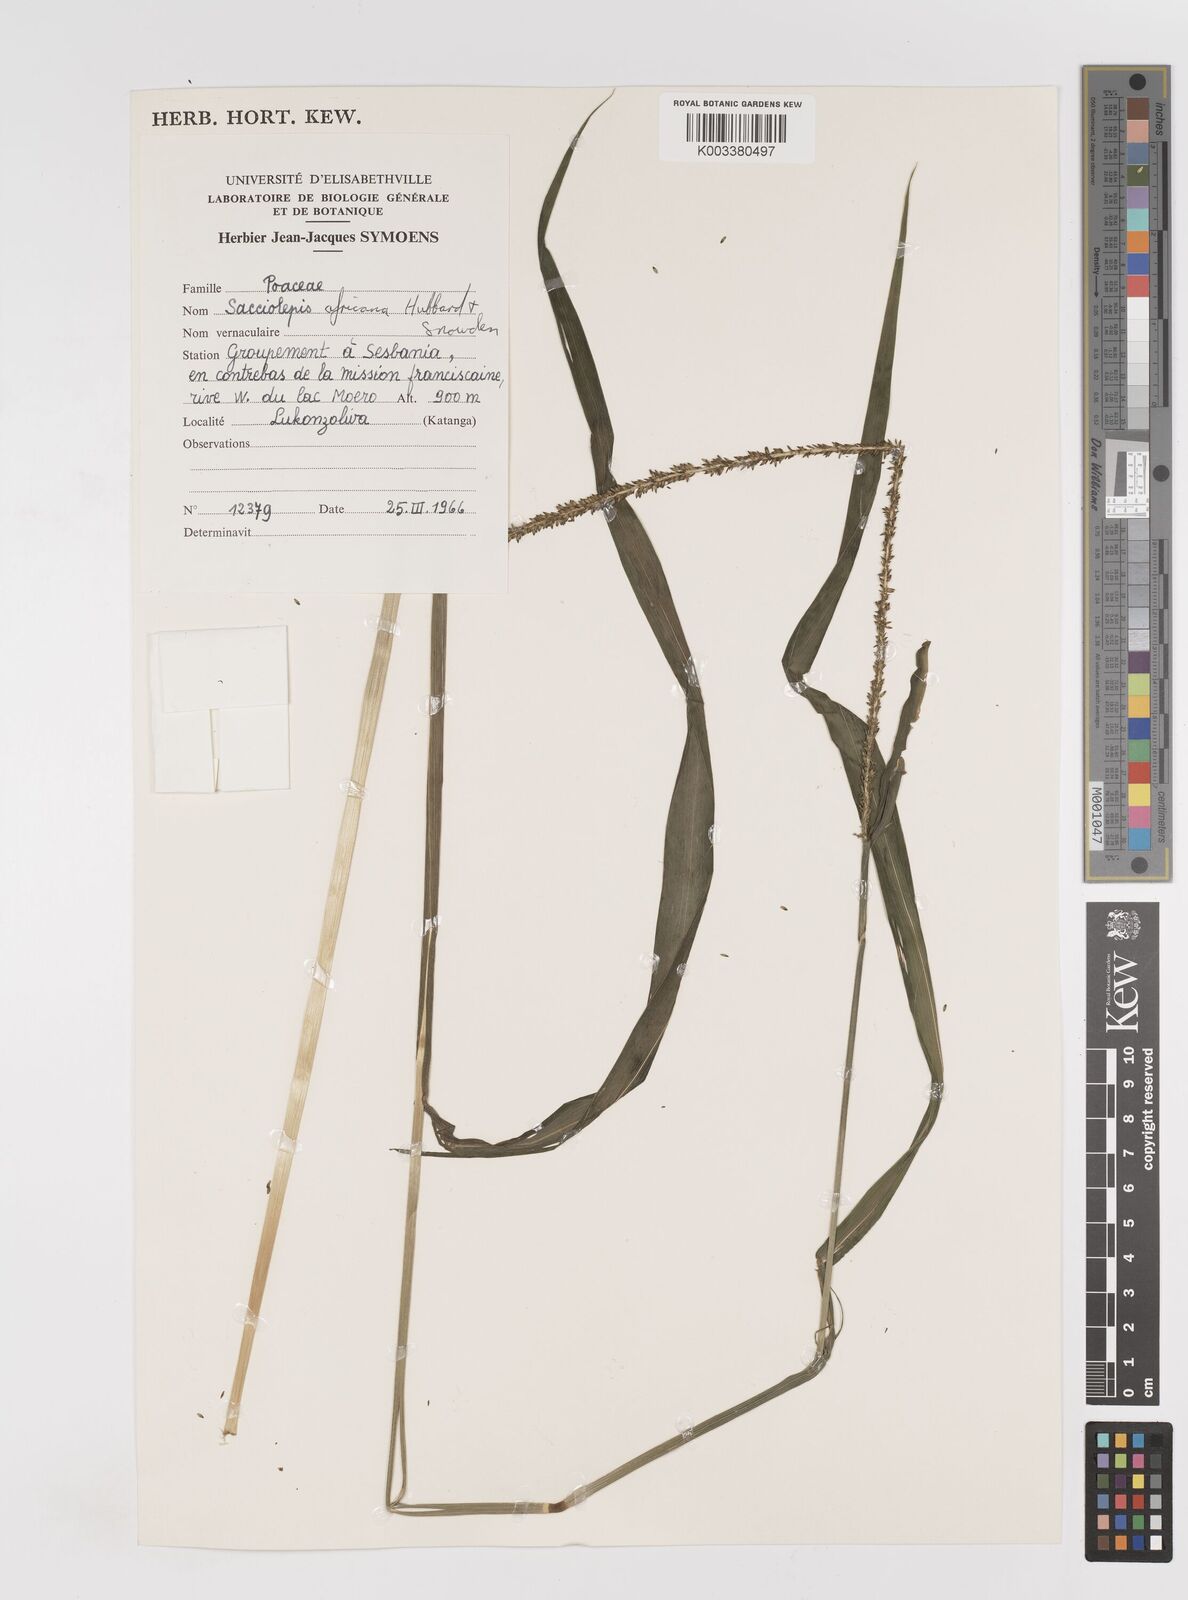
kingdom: Plantae
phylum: Tracheophyta
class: Liliopsida
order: Poales
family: Poaceae
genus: Sacciolepis
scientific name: Sacciolepis africana
